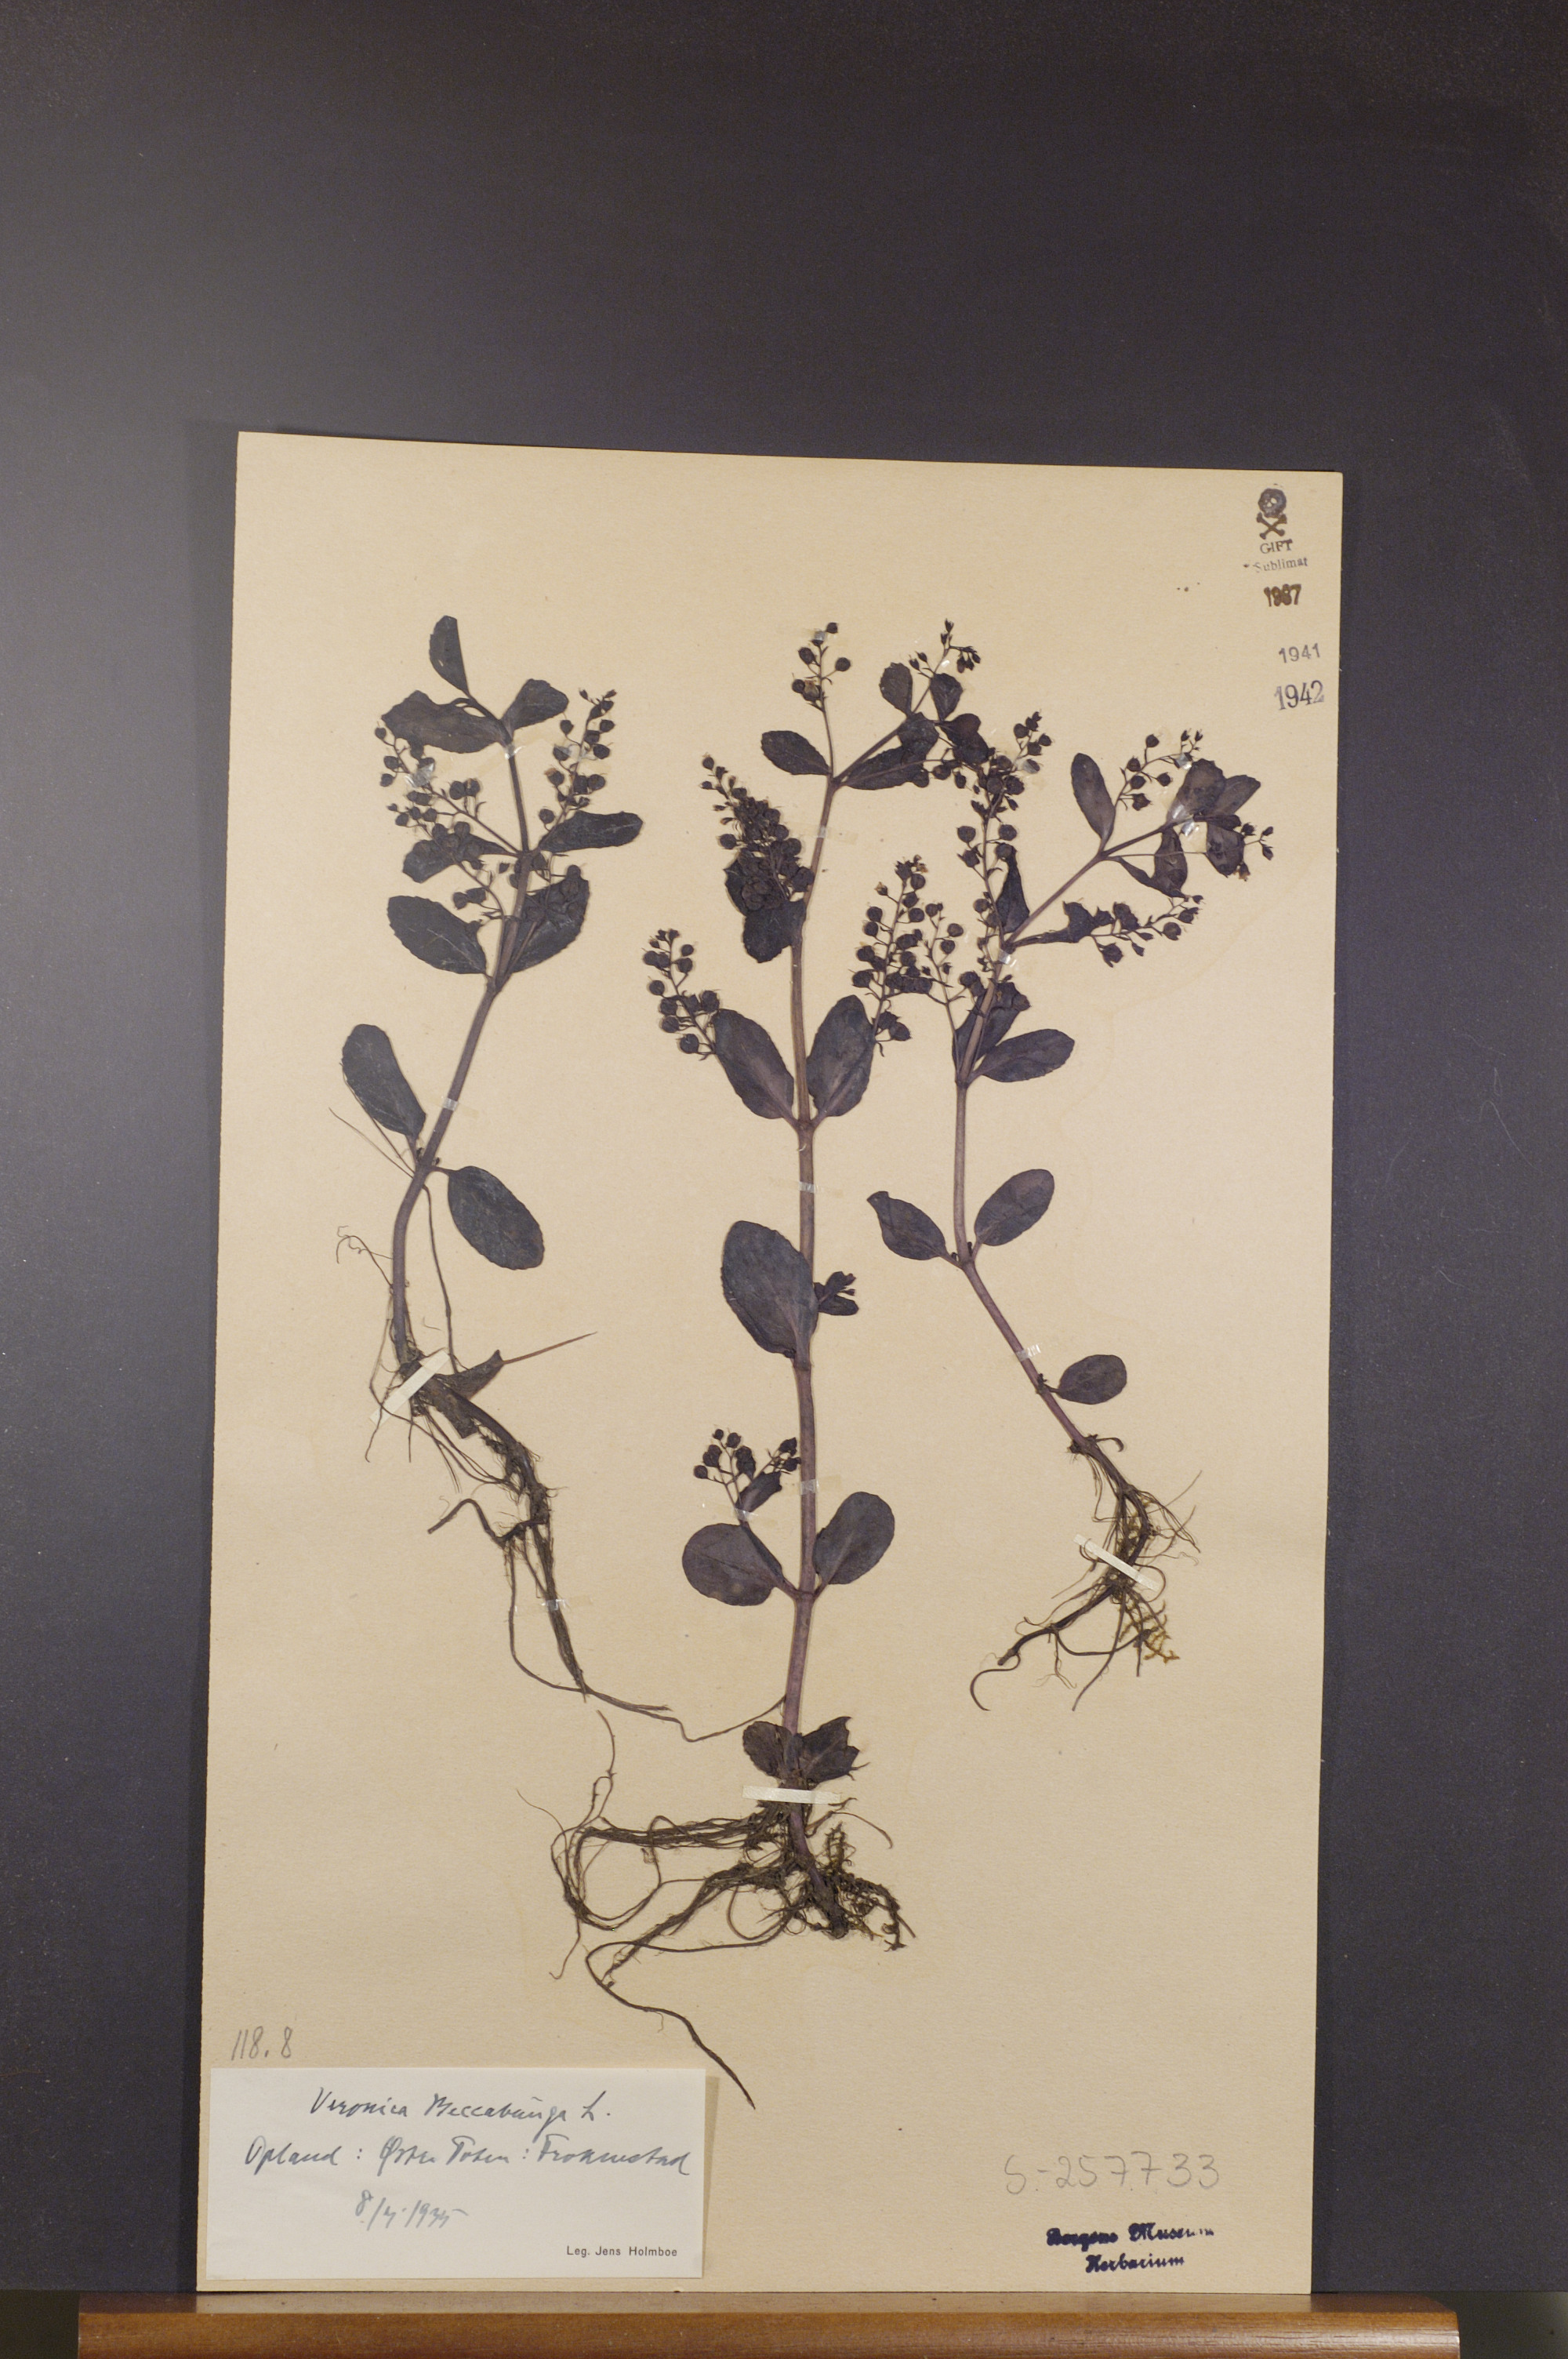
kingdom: Plantae
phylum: Tracheophyta
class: Magnoliopsida
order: Lamiales
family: Plantaginaceae
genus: Veronica
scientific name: Veronica beccabunga
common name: Brooklime
